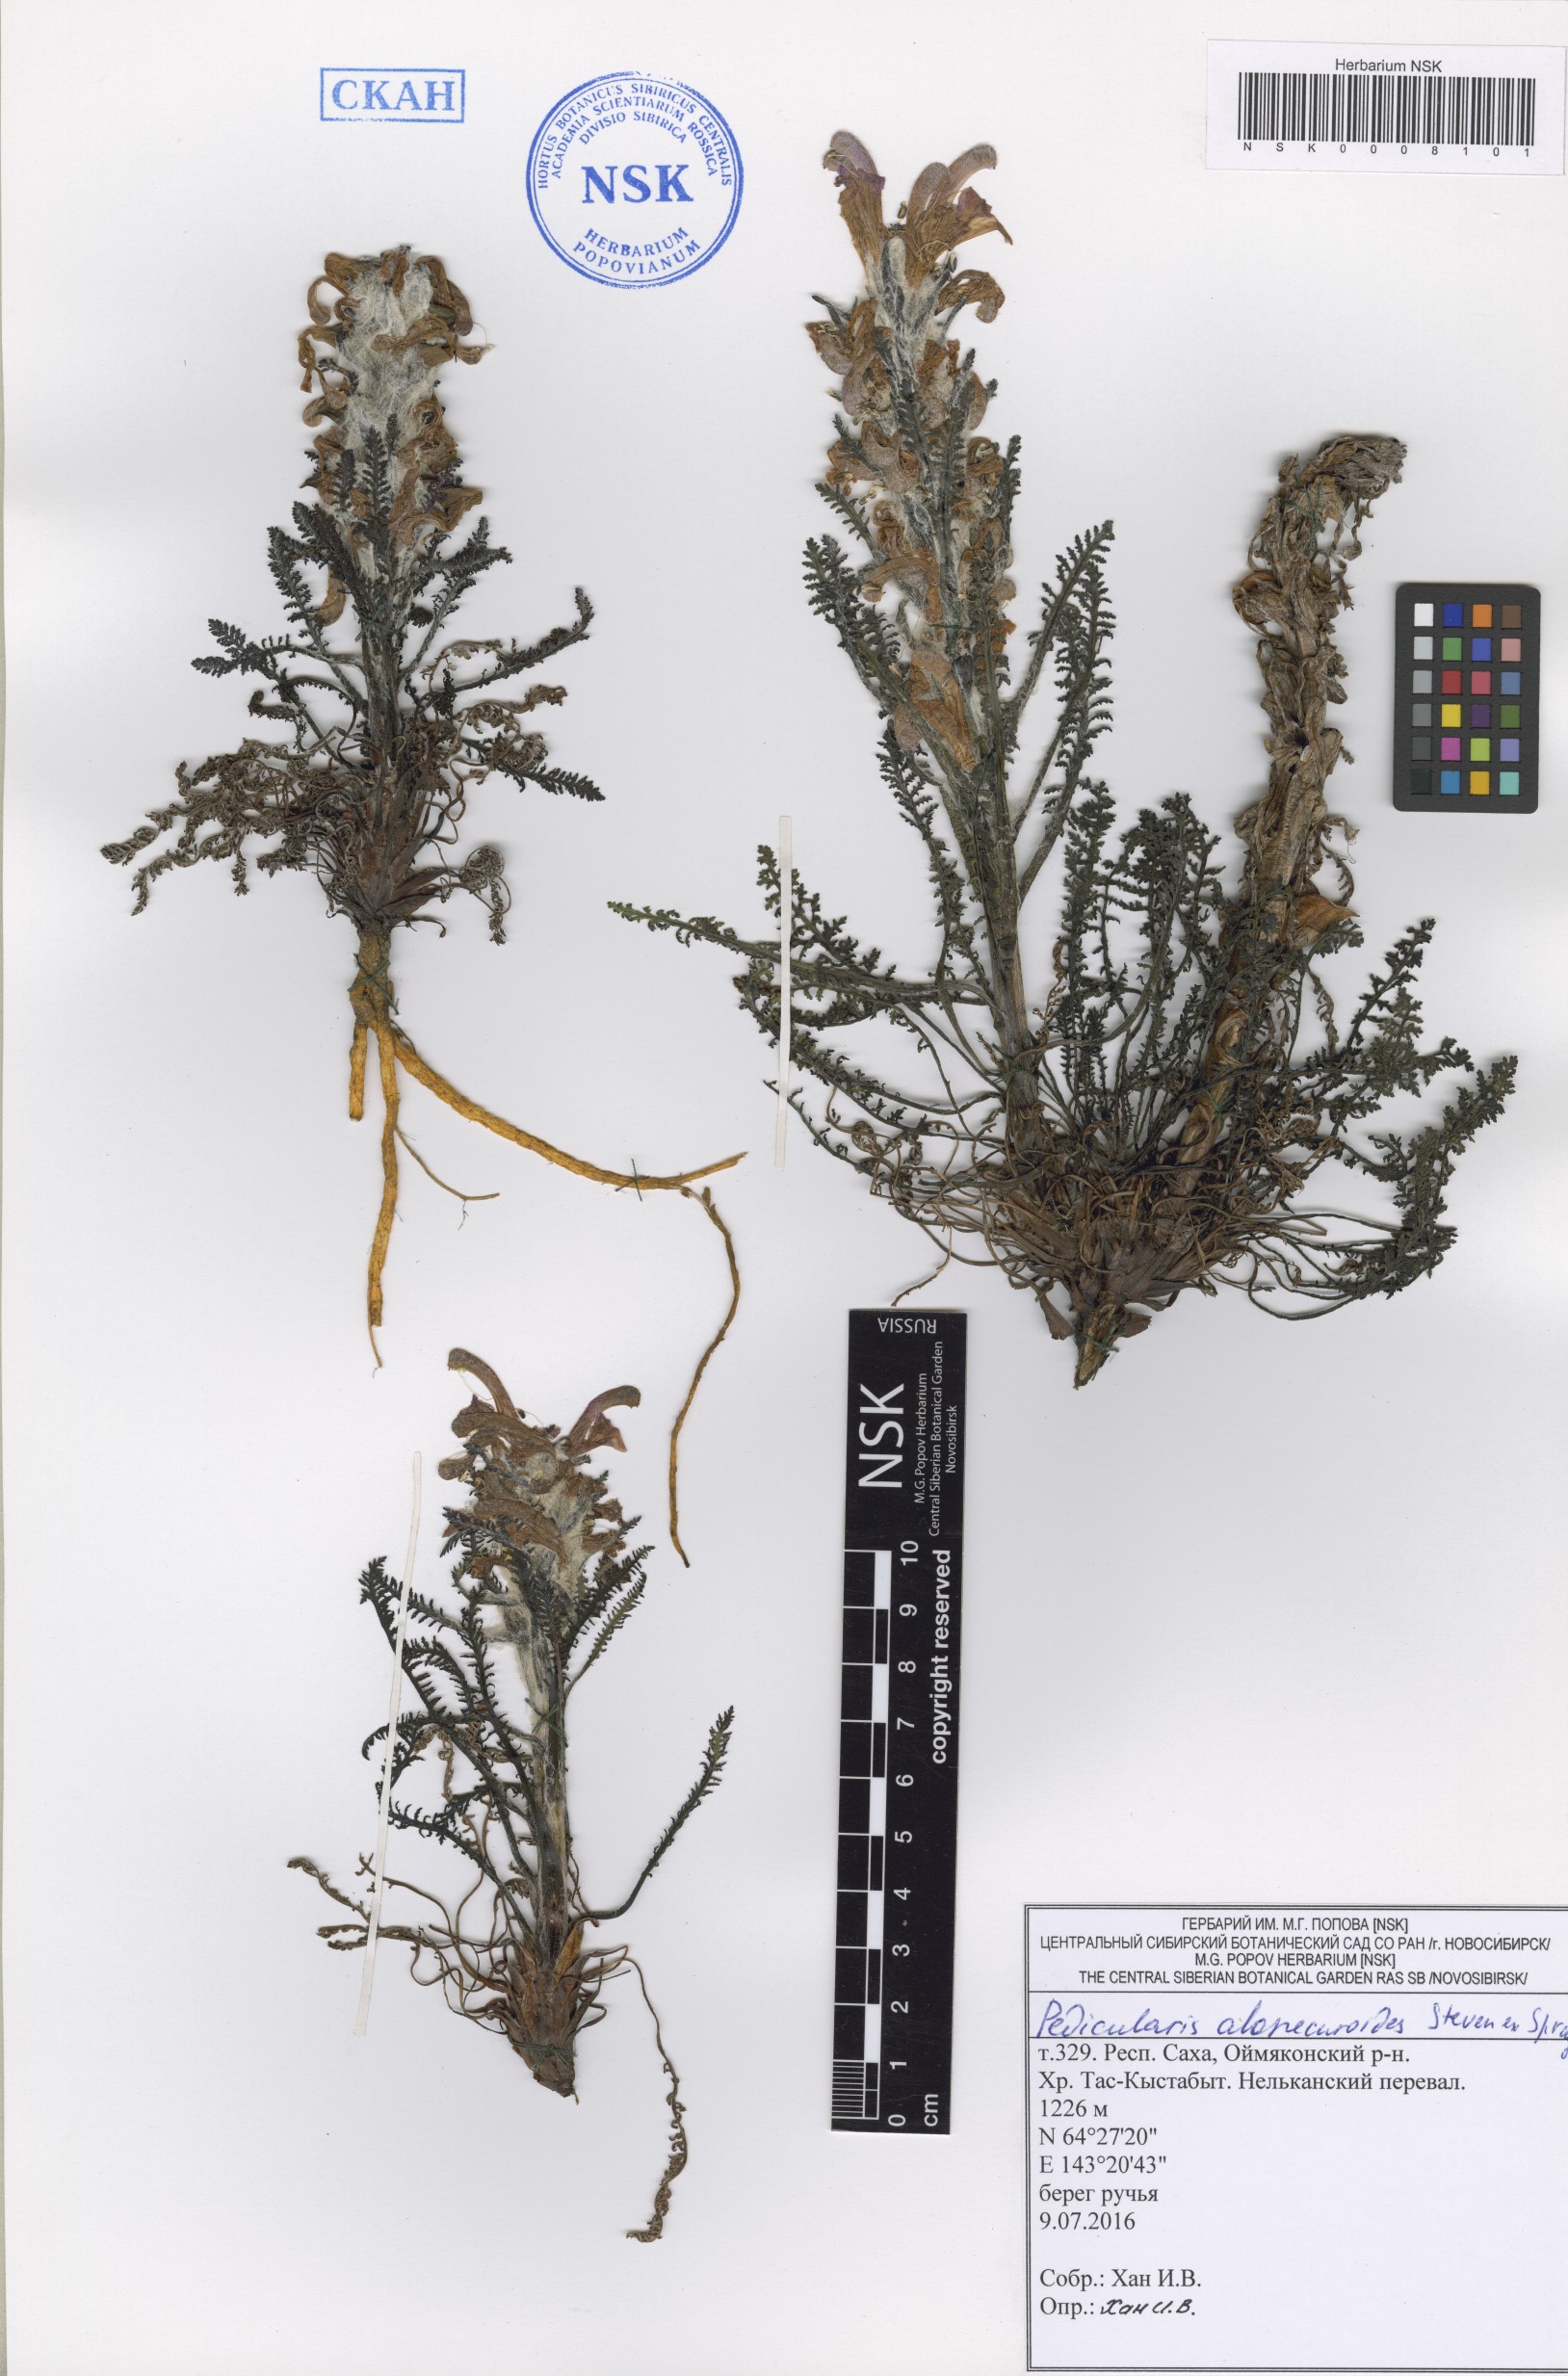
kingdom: Plantae
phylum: Tracheophyta
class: Magnoliopsida
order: Lamiales
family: Orobanchaceae
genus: Pedicularis
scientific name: Pedicularis alopecuroides
